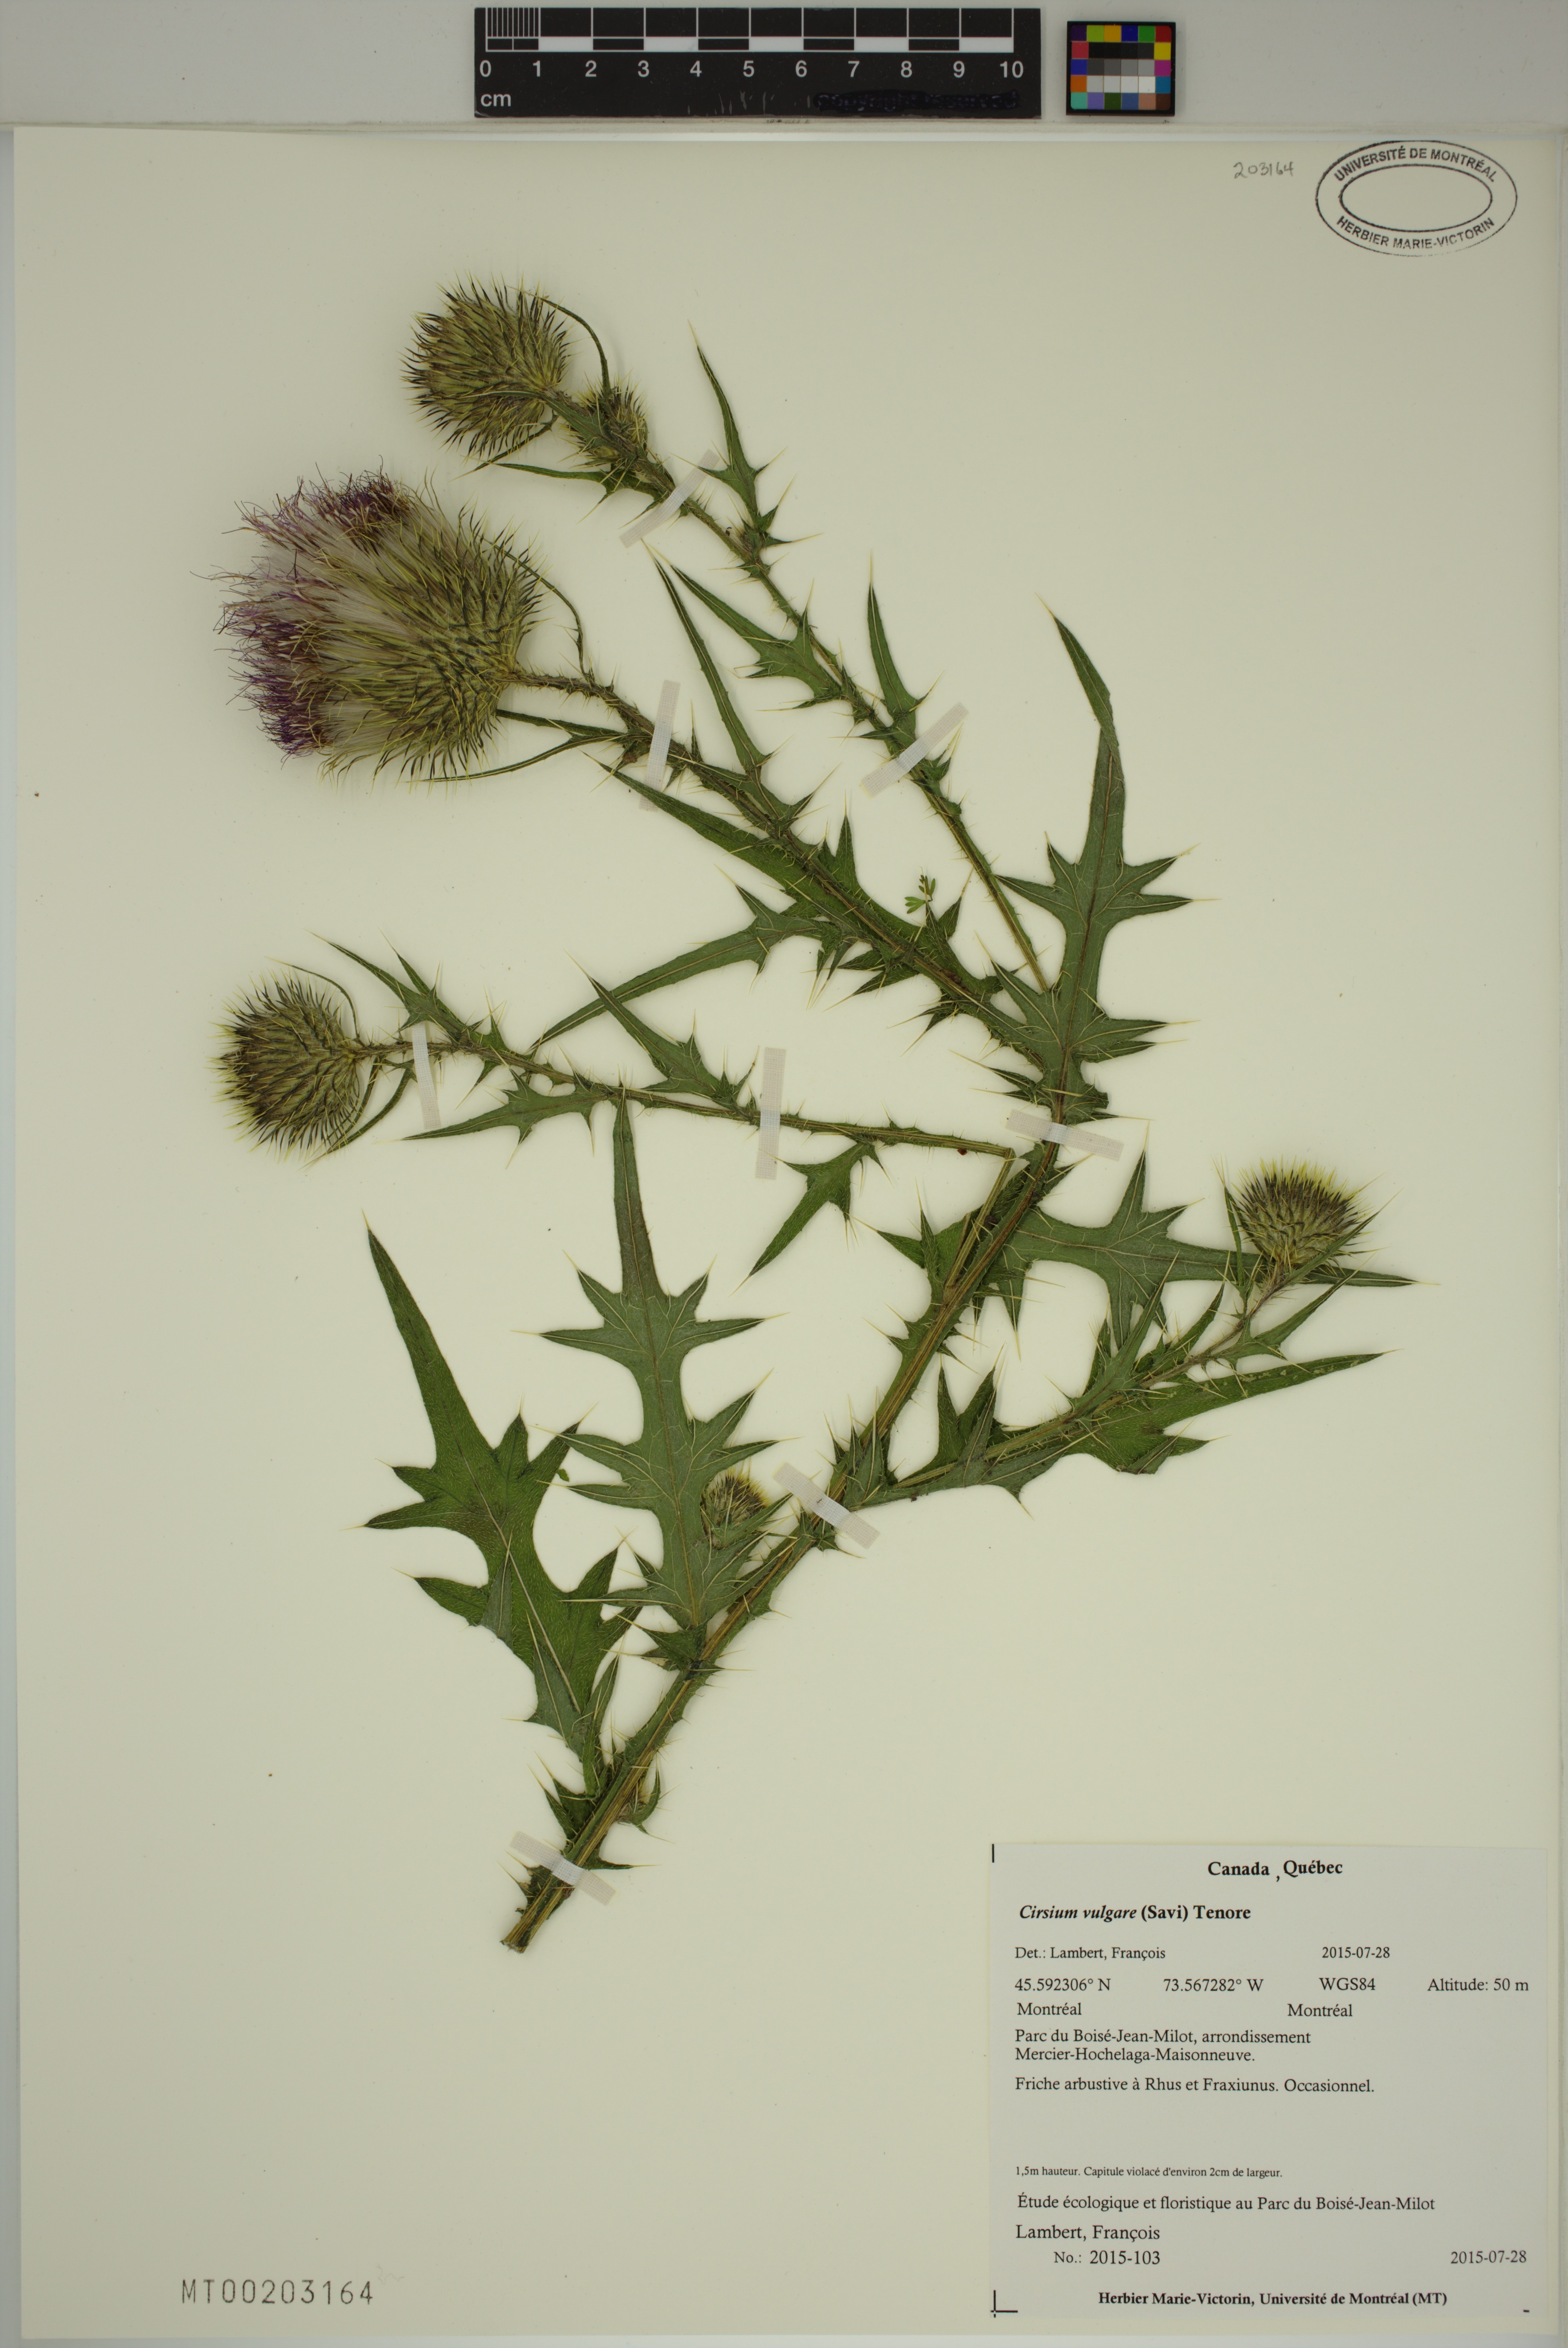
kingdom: Plantae
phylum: Tracheophyta
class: Magnoliopsida
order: Asterales
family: Asteraceae
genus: Cirsium
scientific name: Cirsium vulgare
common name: Bull thistle
